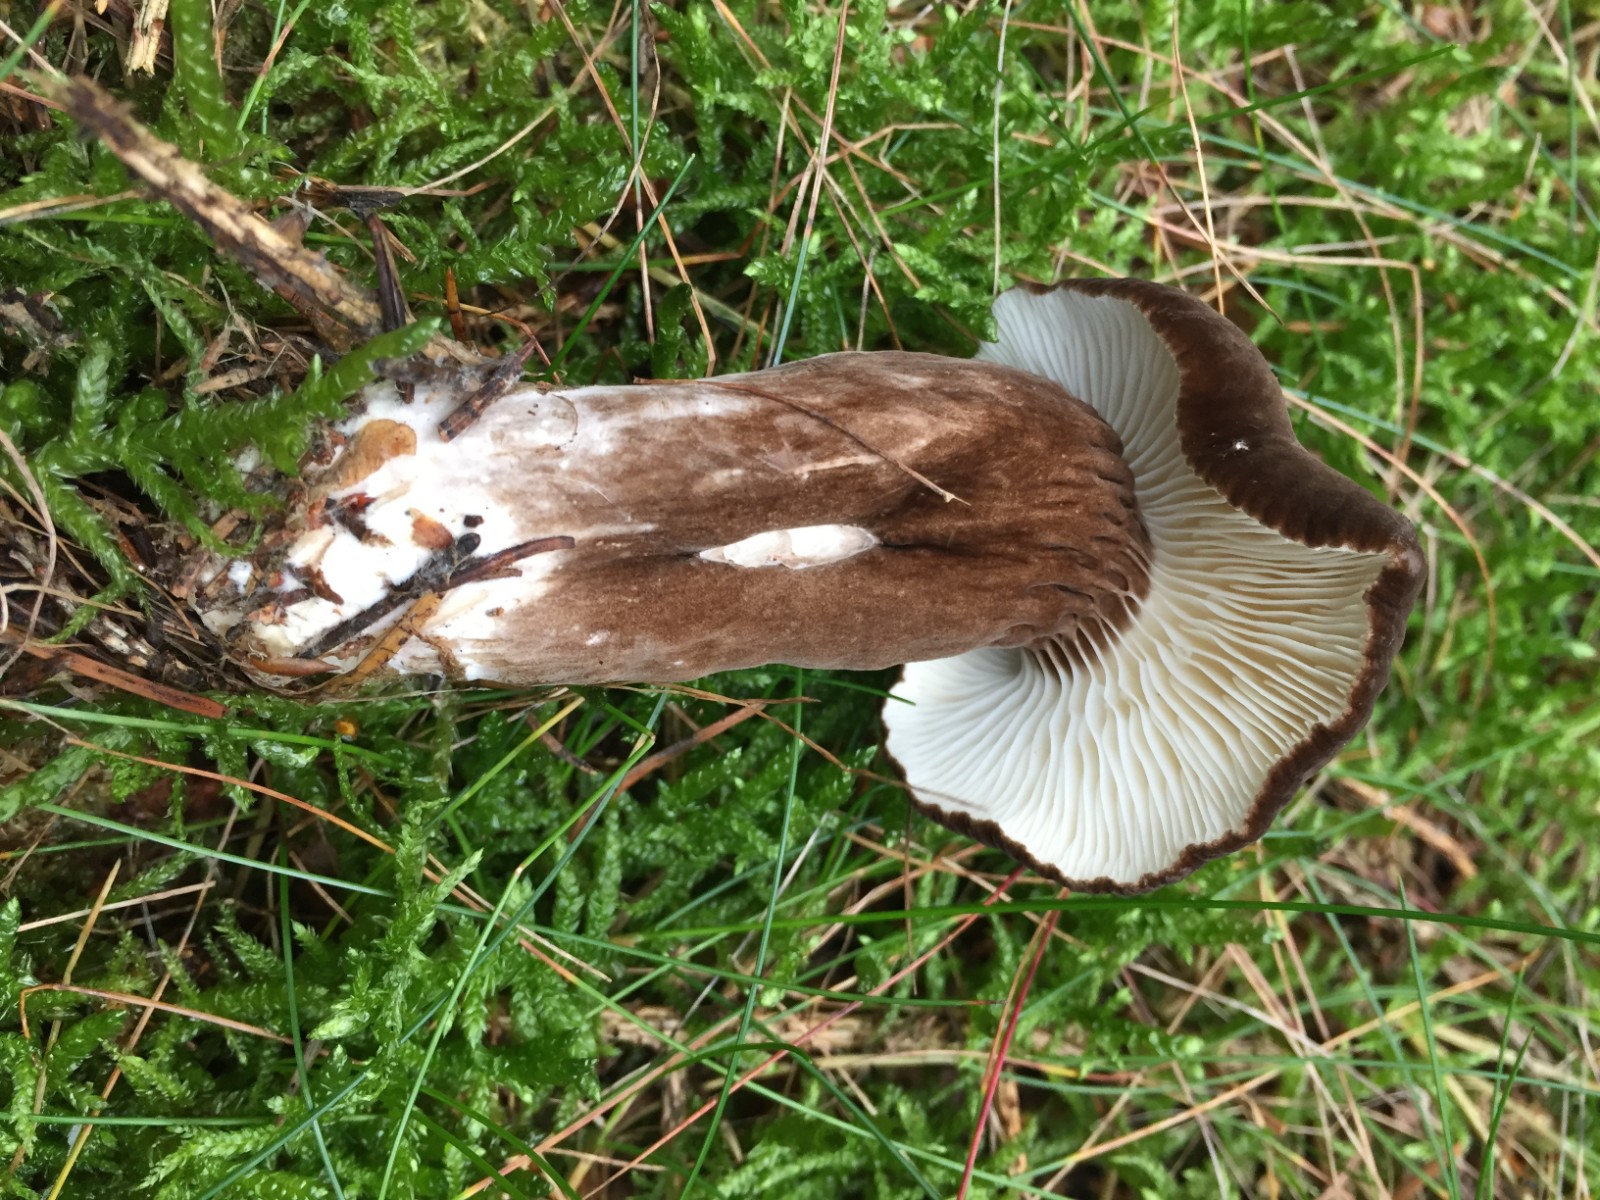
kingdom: Fungi
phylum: Basidiomycota
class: Agaricomycetes
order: Russulales
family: Russulaceae
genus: Lactarius
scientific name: Lactarius lignyotus
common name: fløjls-mælkehat
